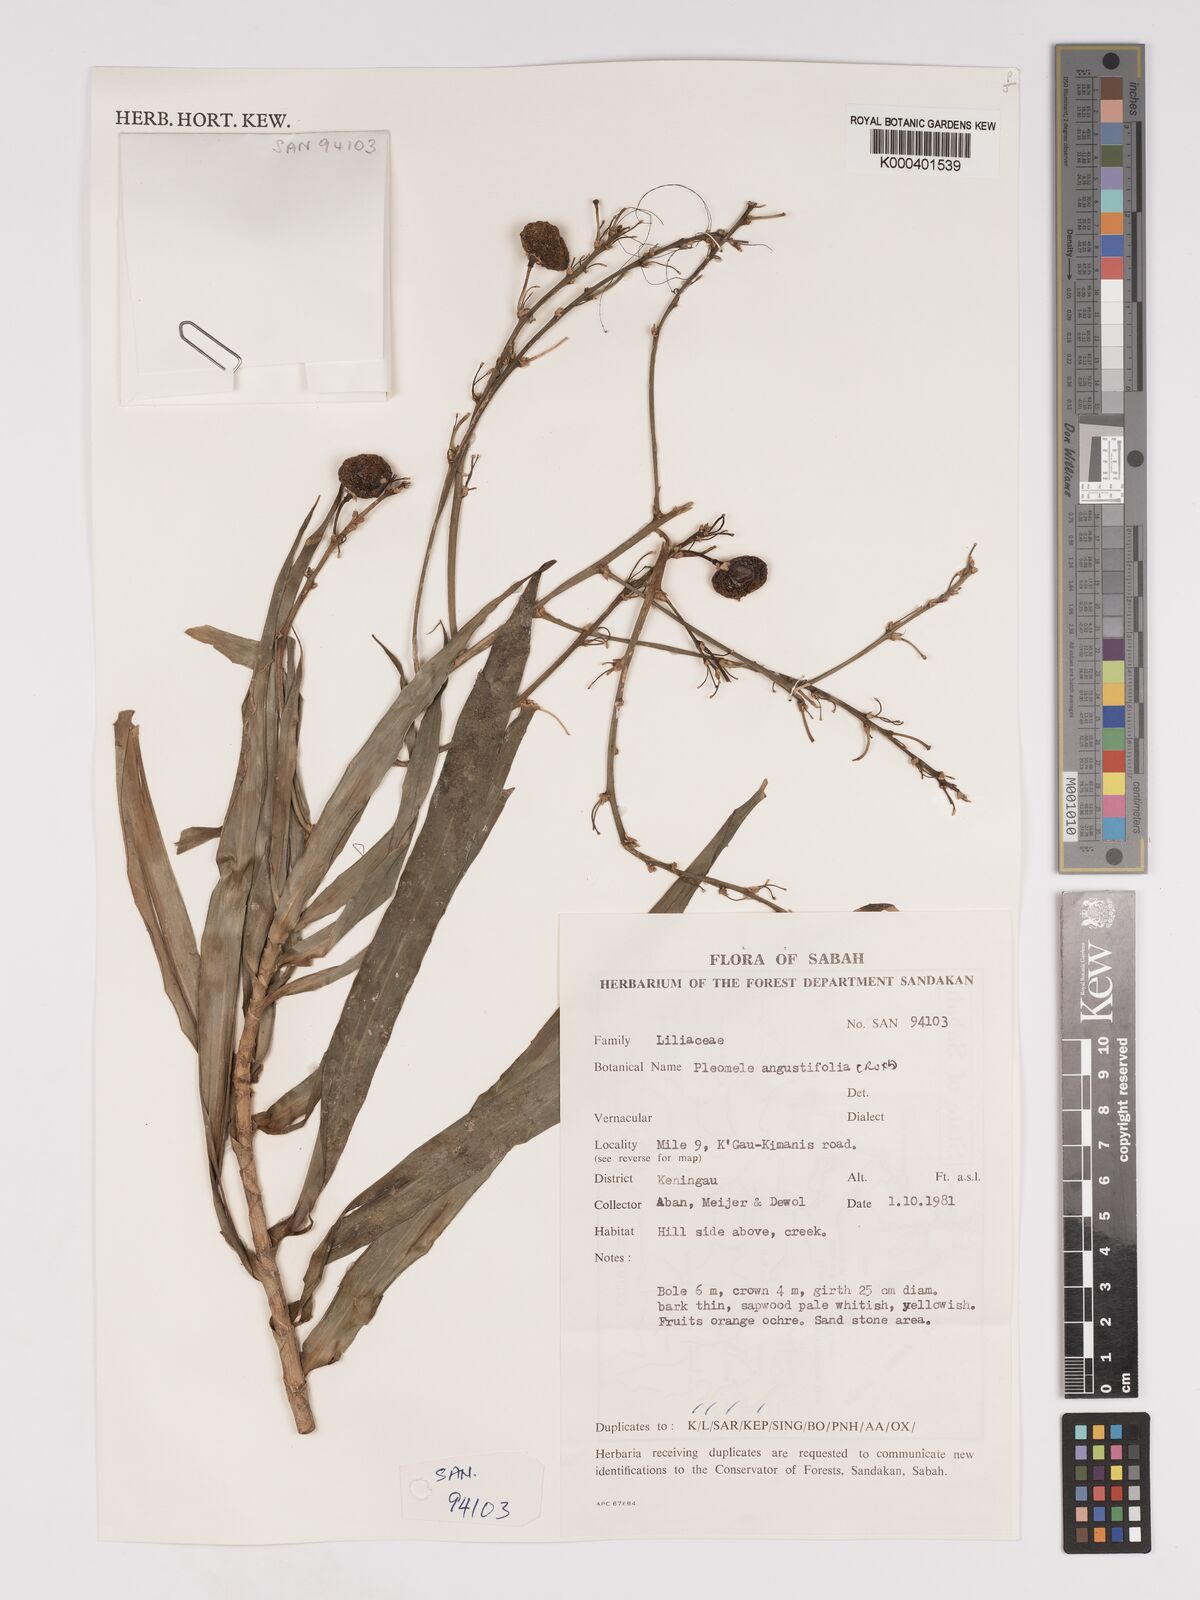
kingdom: Plantae
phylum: Tracheophyta
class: Liliopsida
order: Asparagales
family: Asparagaceae
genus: Dracaena
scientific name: Dracaena angustifolia
